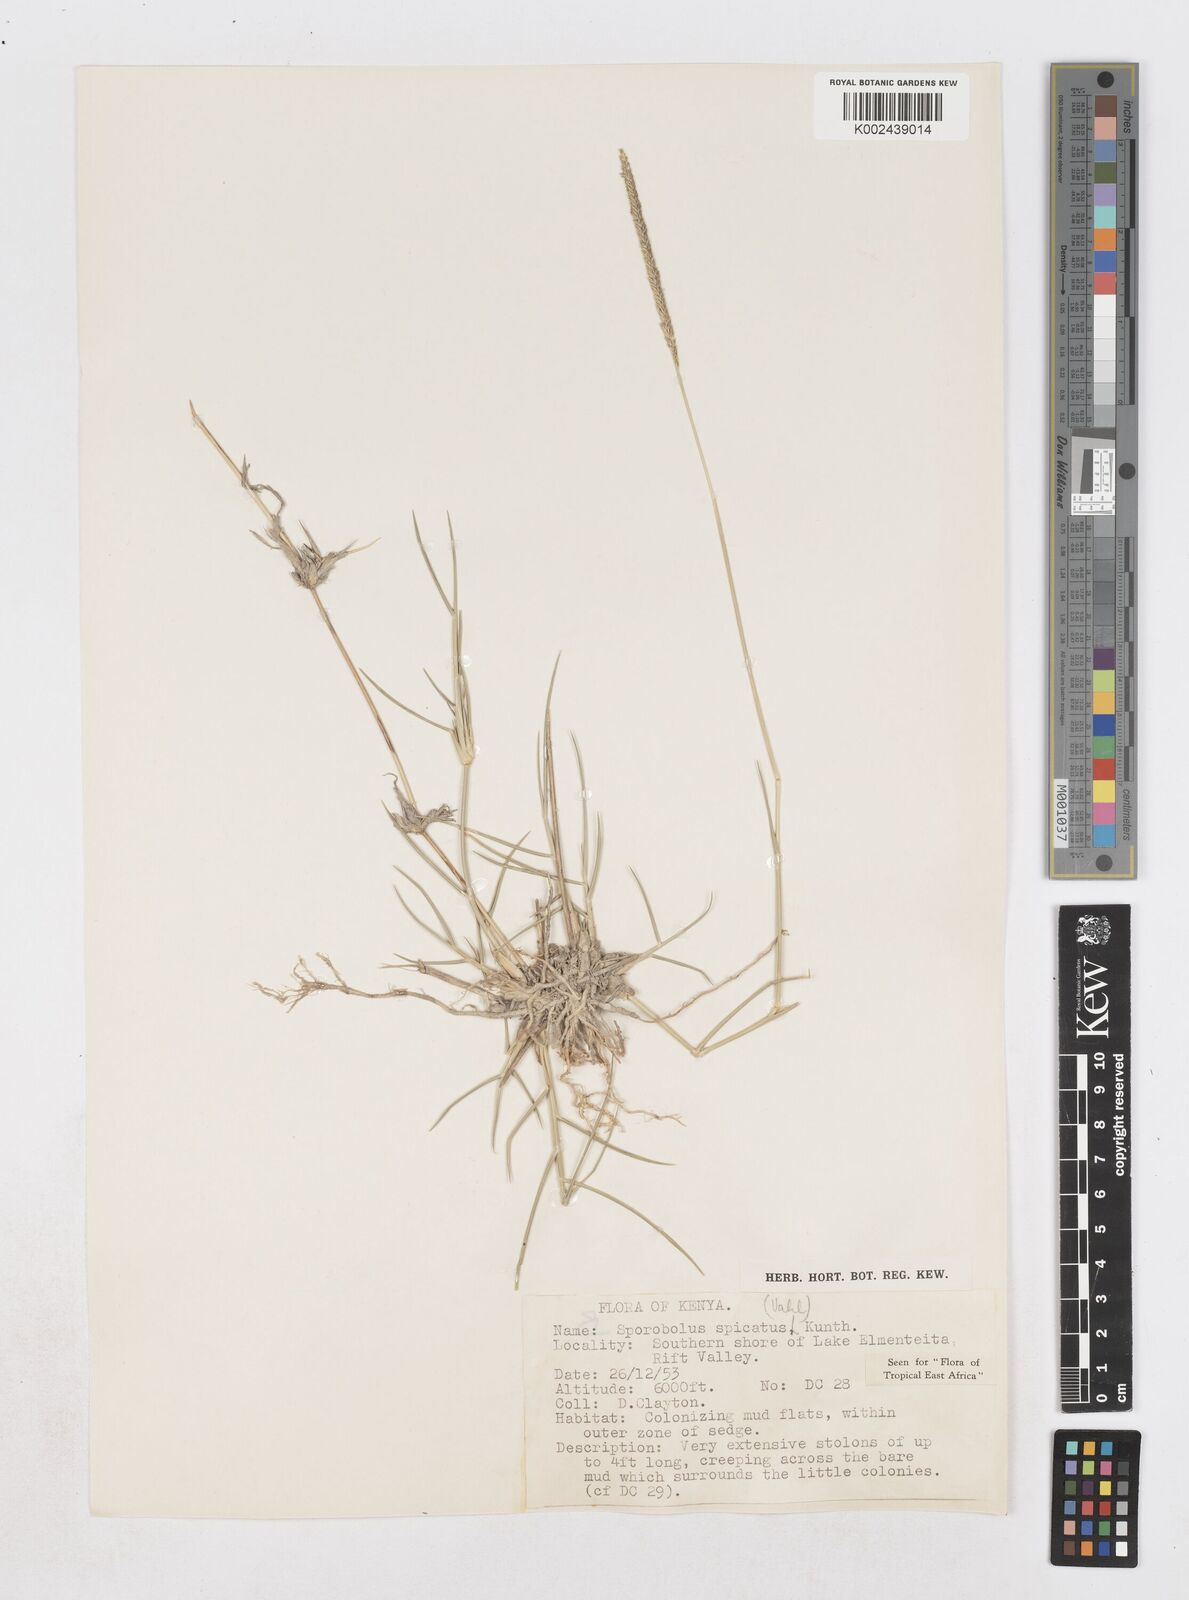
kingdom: Plantae
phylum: Tracheophyta
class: Liliopsida
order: Poales
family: Poaceae
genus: Sporobolus
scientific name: Sporobolus spicatus
